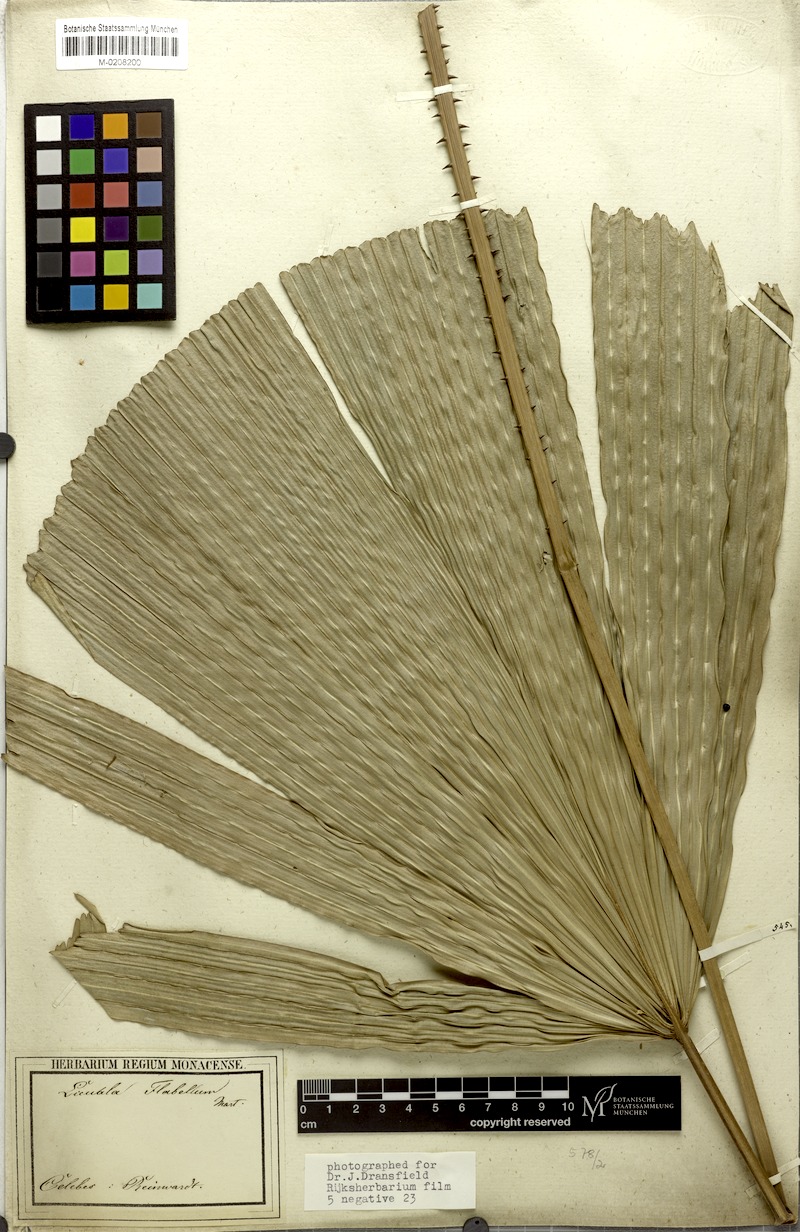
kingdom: Plantae
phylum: Tracheophyta
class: Liliopsida
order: Arecales
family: Arecaceae
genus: Lanonia
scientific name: Lanonia gracilis
